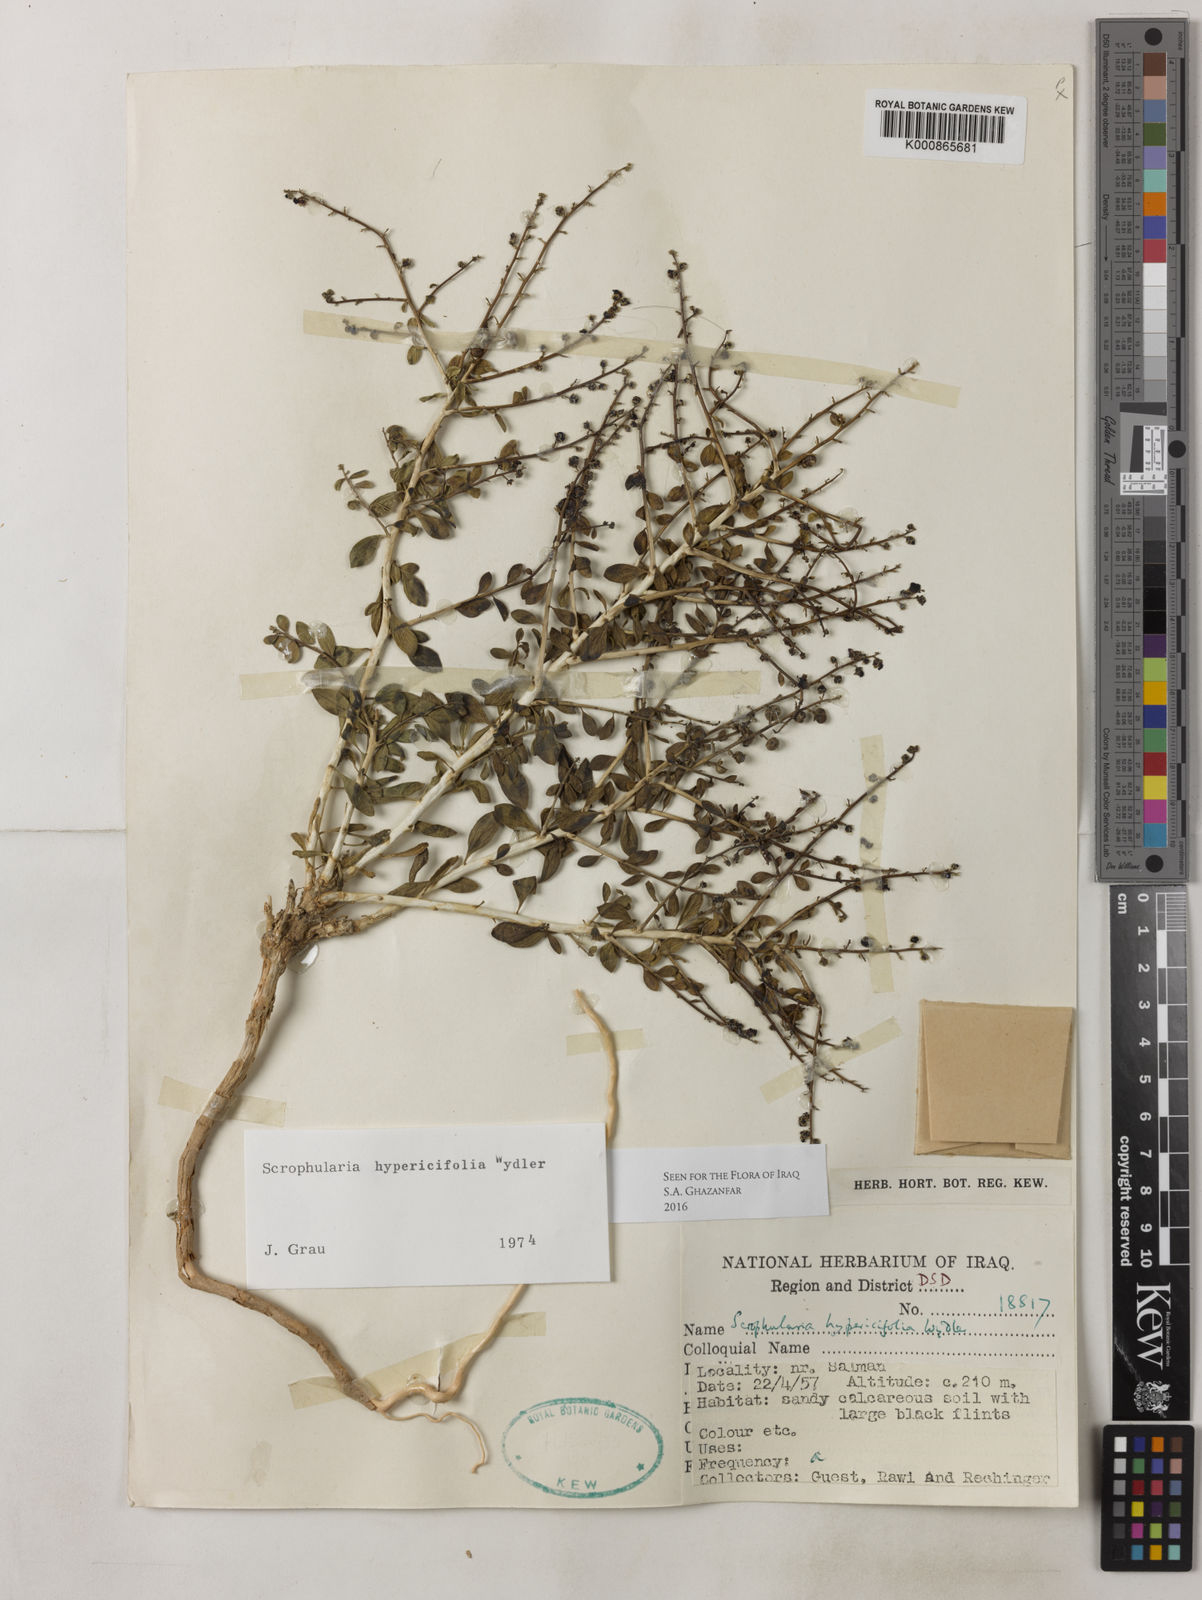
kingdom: Plantae
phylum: Tracheophyta
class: Magnoliopsida
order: Lamiales
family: Scrophulariaceae
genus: Scrophularia
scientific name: Scrophularia hypericifolia
